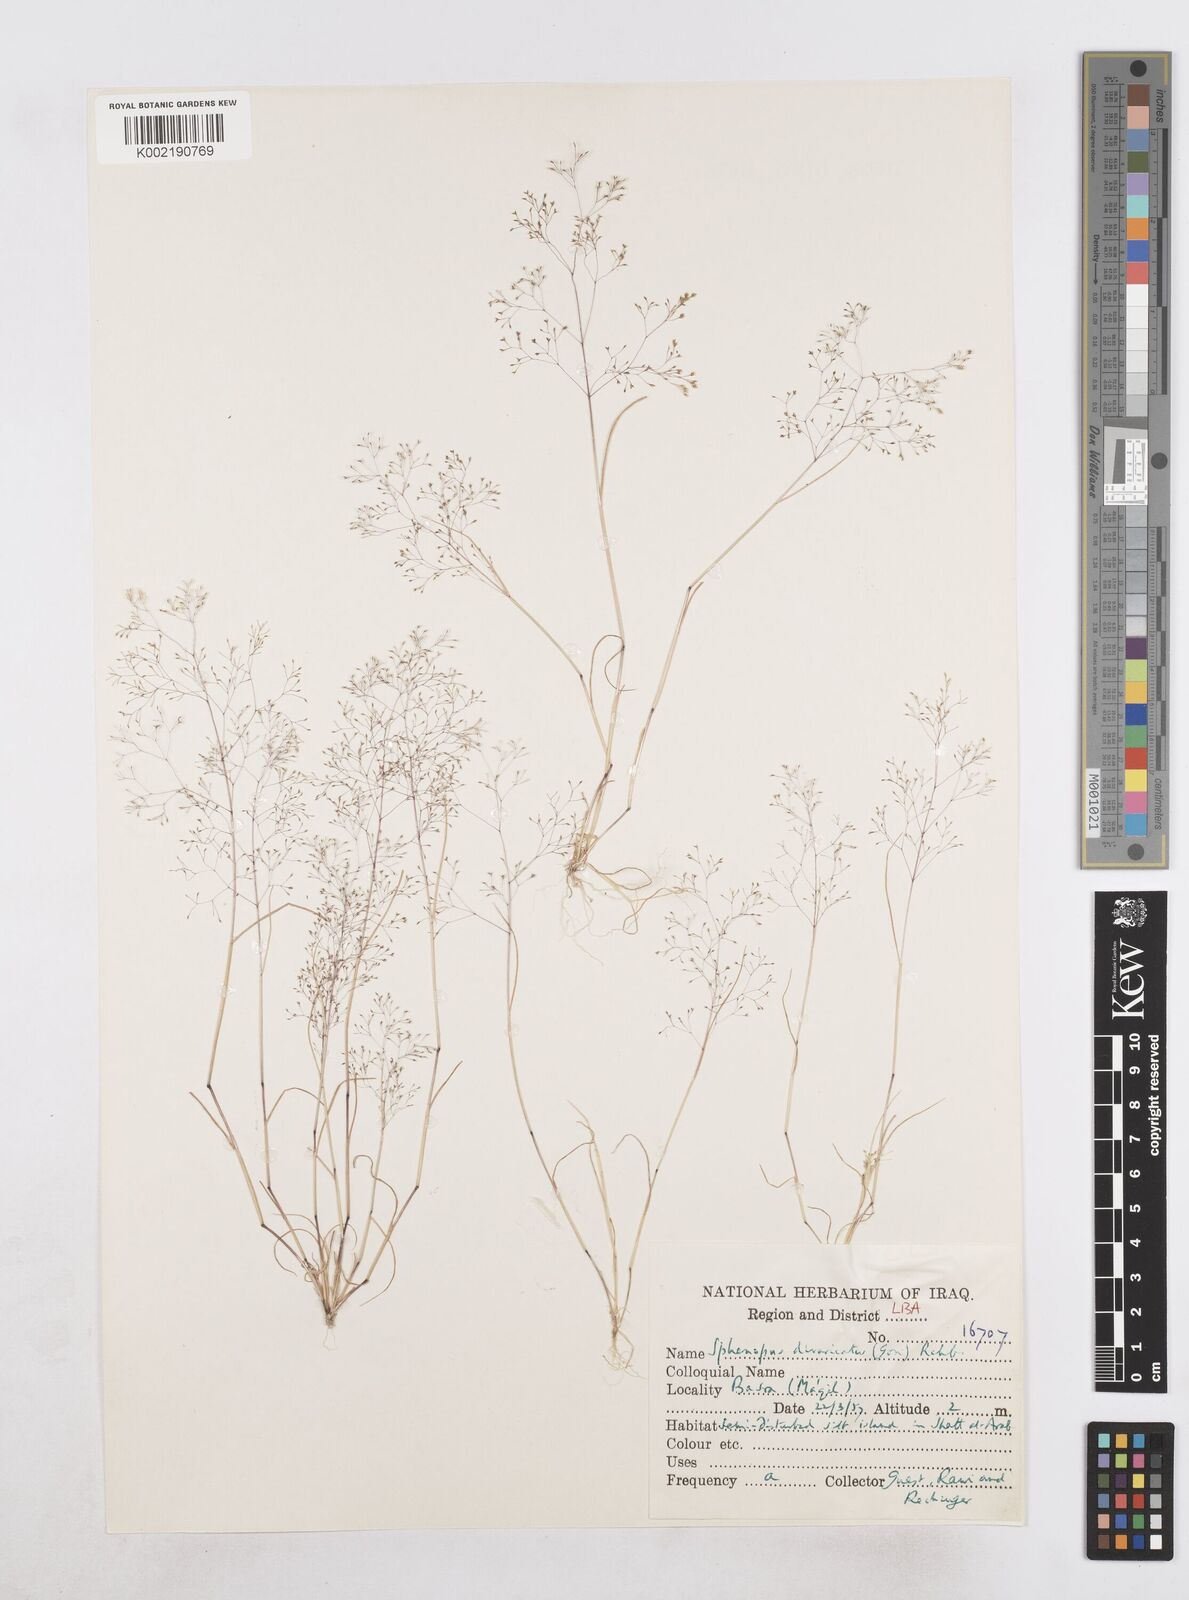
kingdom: Plantae
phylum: Tracheophyta
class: Liliopsida
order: Poales
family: Poaceae
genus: Sphenopus
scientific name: Sphenopus divaricatus
